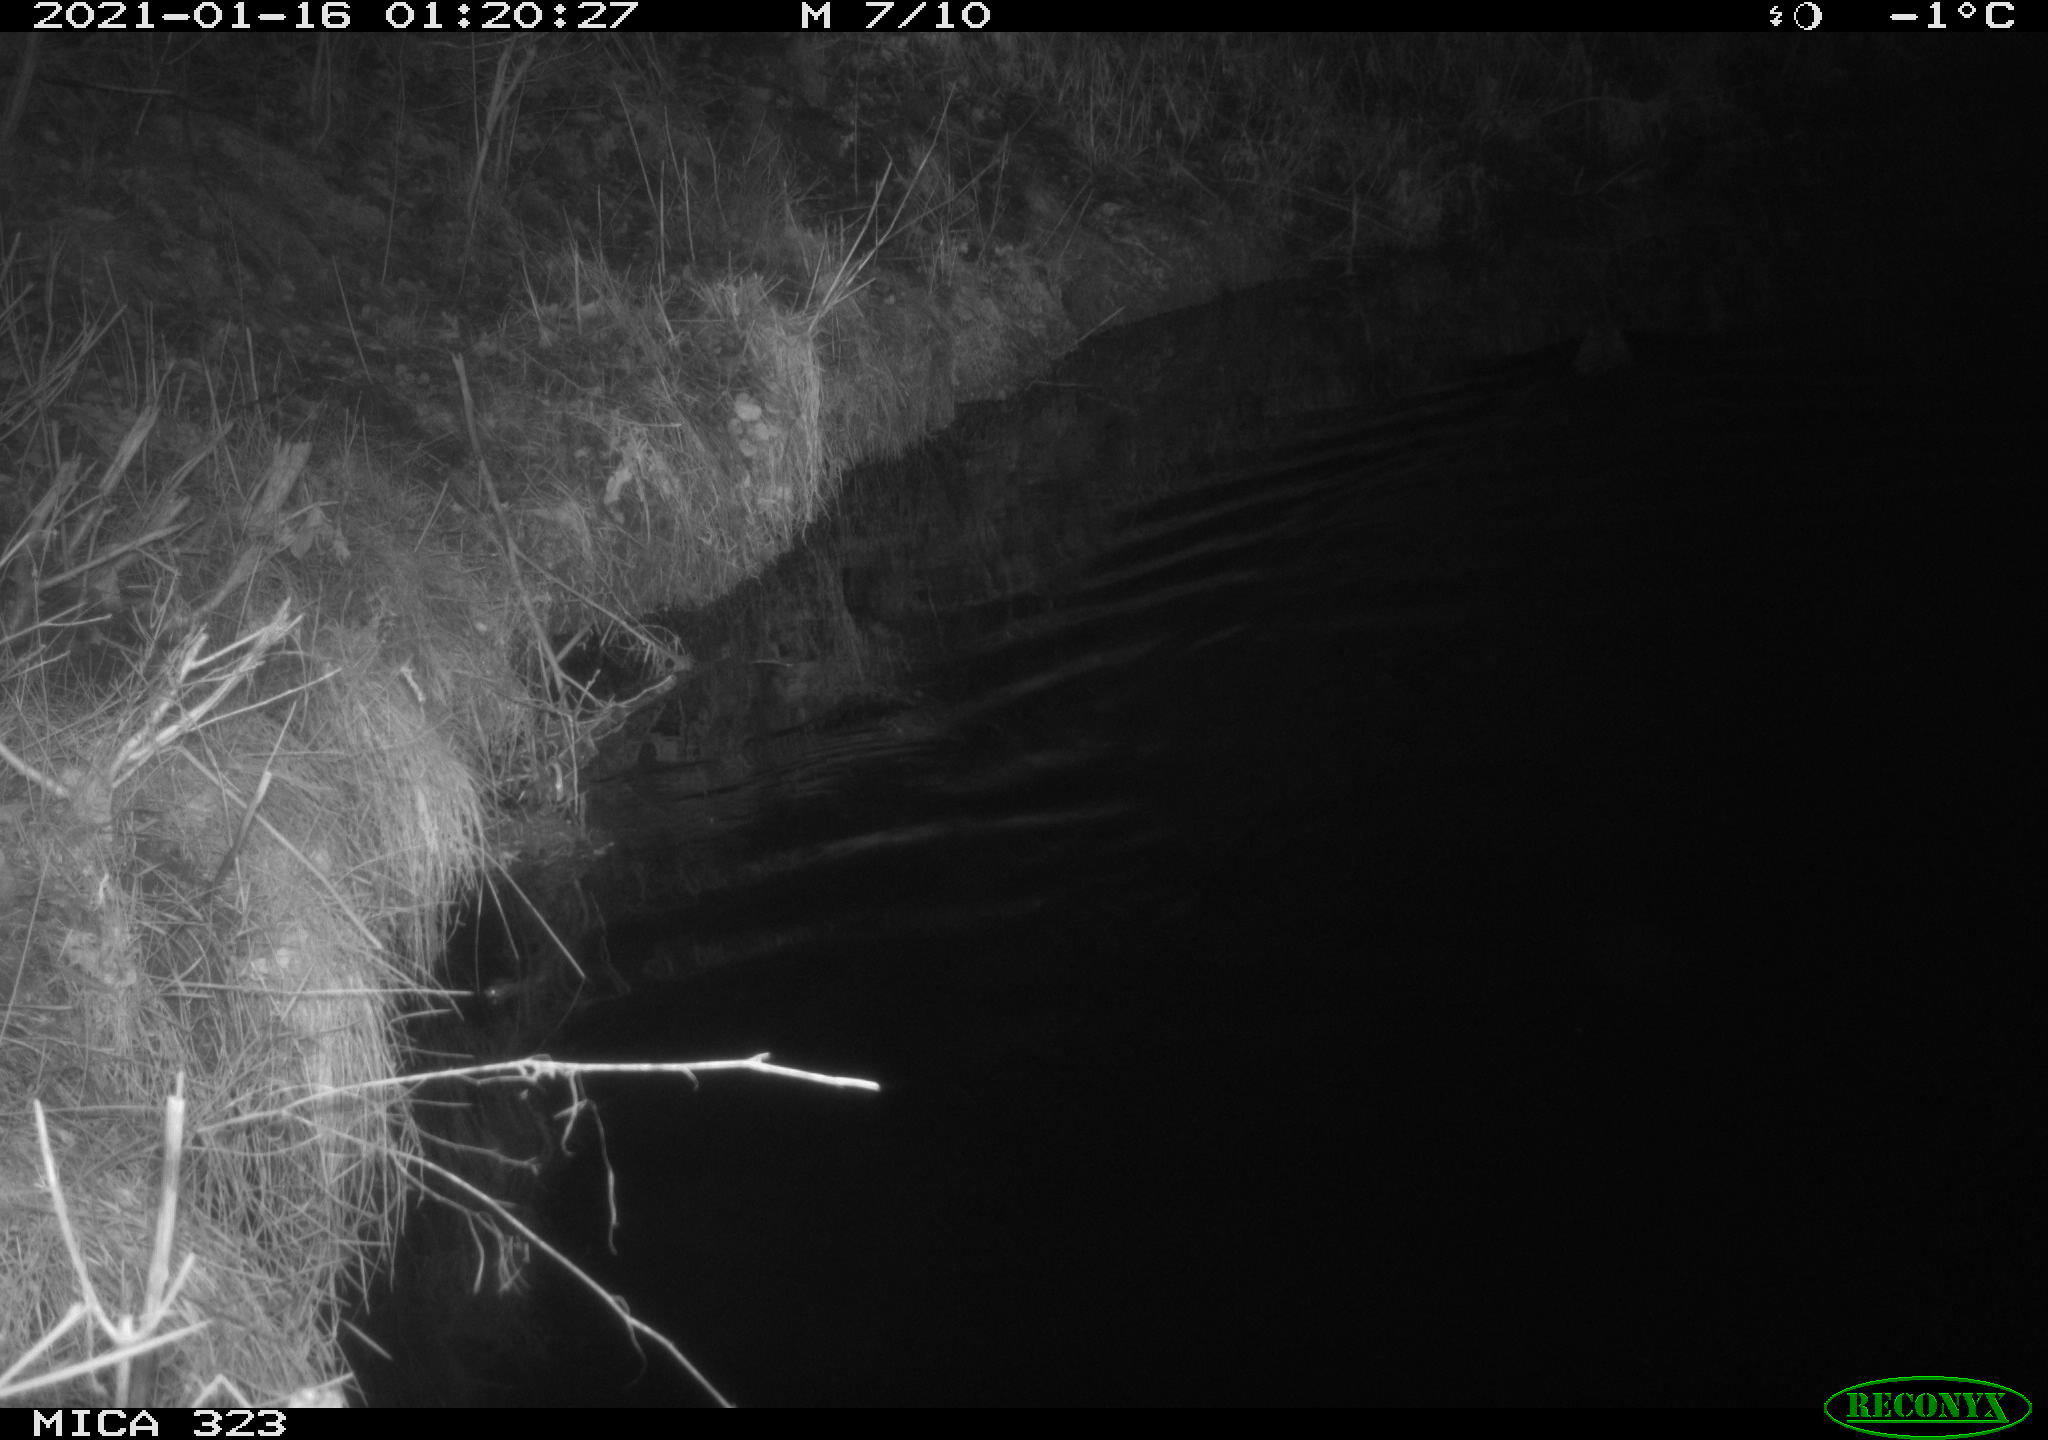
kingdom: Animalia
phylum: Chordata
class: Mammalia
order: Rodentia
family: Myocastoridae
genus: Myocastor
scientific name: Myocastor coypus
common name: Coypu
